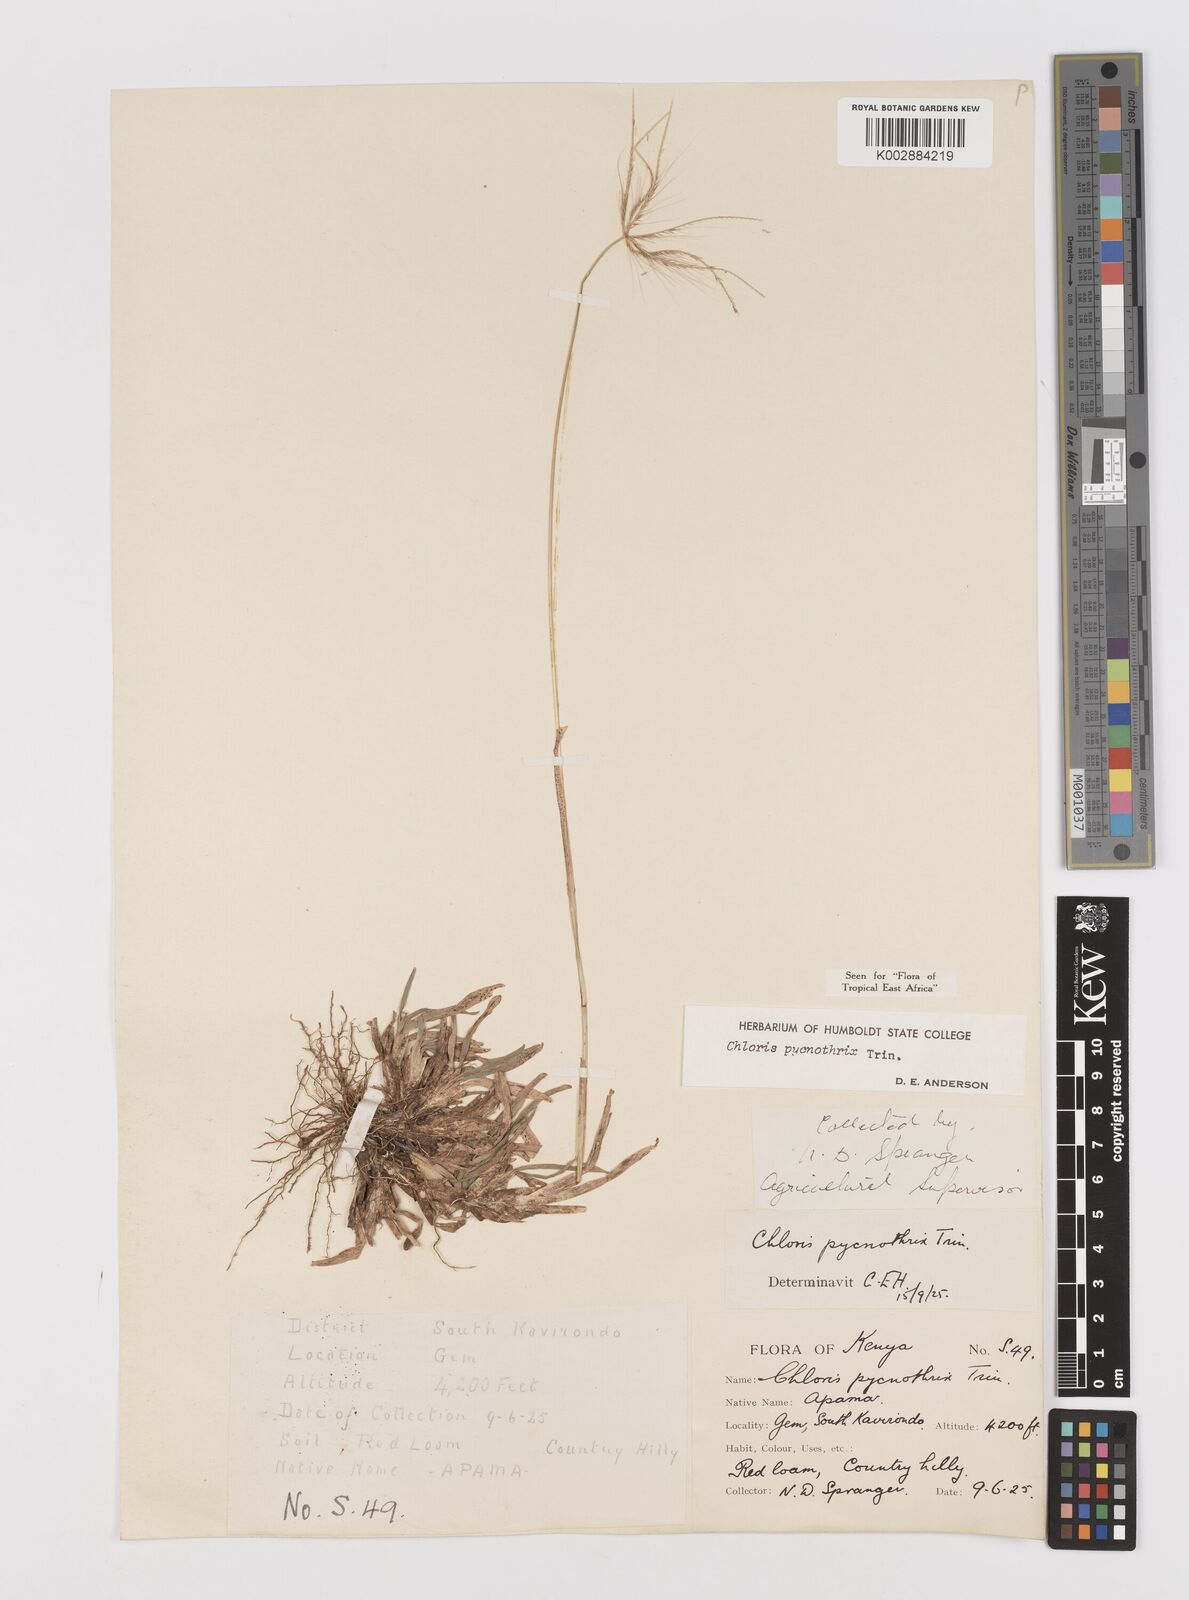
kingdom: Plantae
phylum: Tracheophyta
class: Liliopsida
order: Poales
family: Poaceae
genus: Chloris
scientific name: Chloris pycnothrix
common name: Spiderweb chloris
